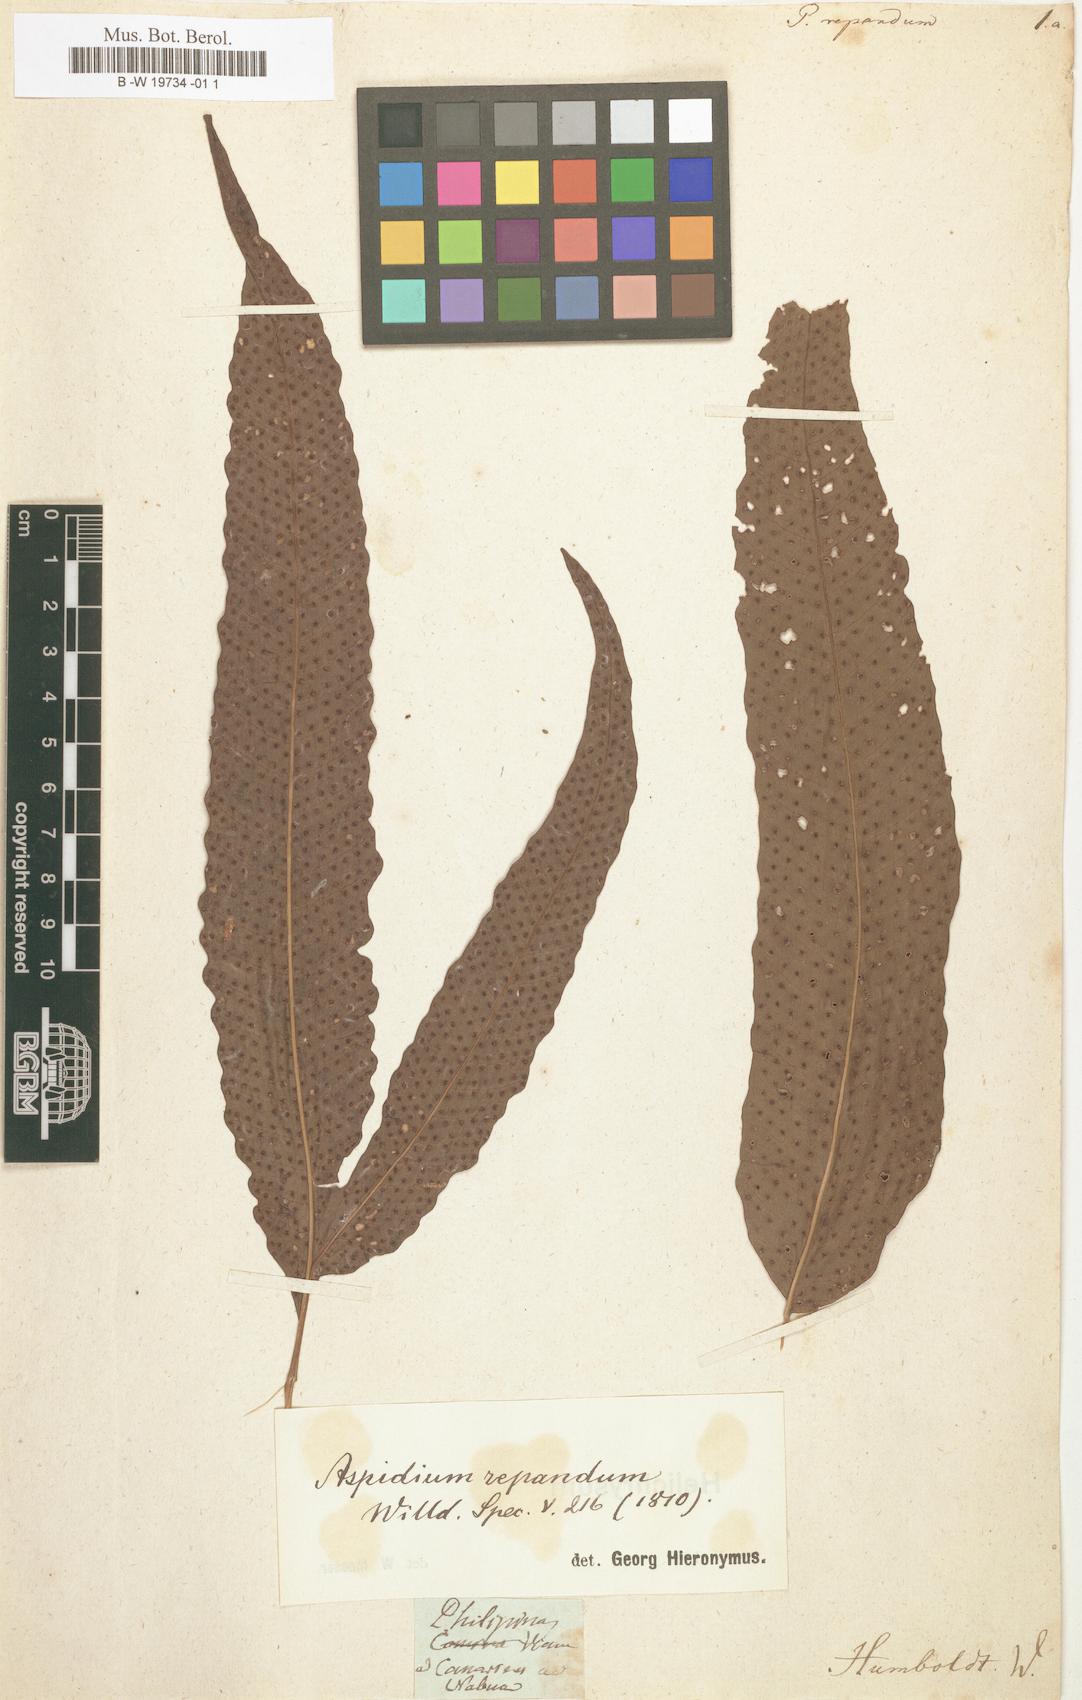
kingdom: Plantae
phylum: Tracheophyta
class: Polypodiopsida
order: Polypodiales
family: Tectariaceae
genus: Tectaria
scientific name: Tectaria repanda
